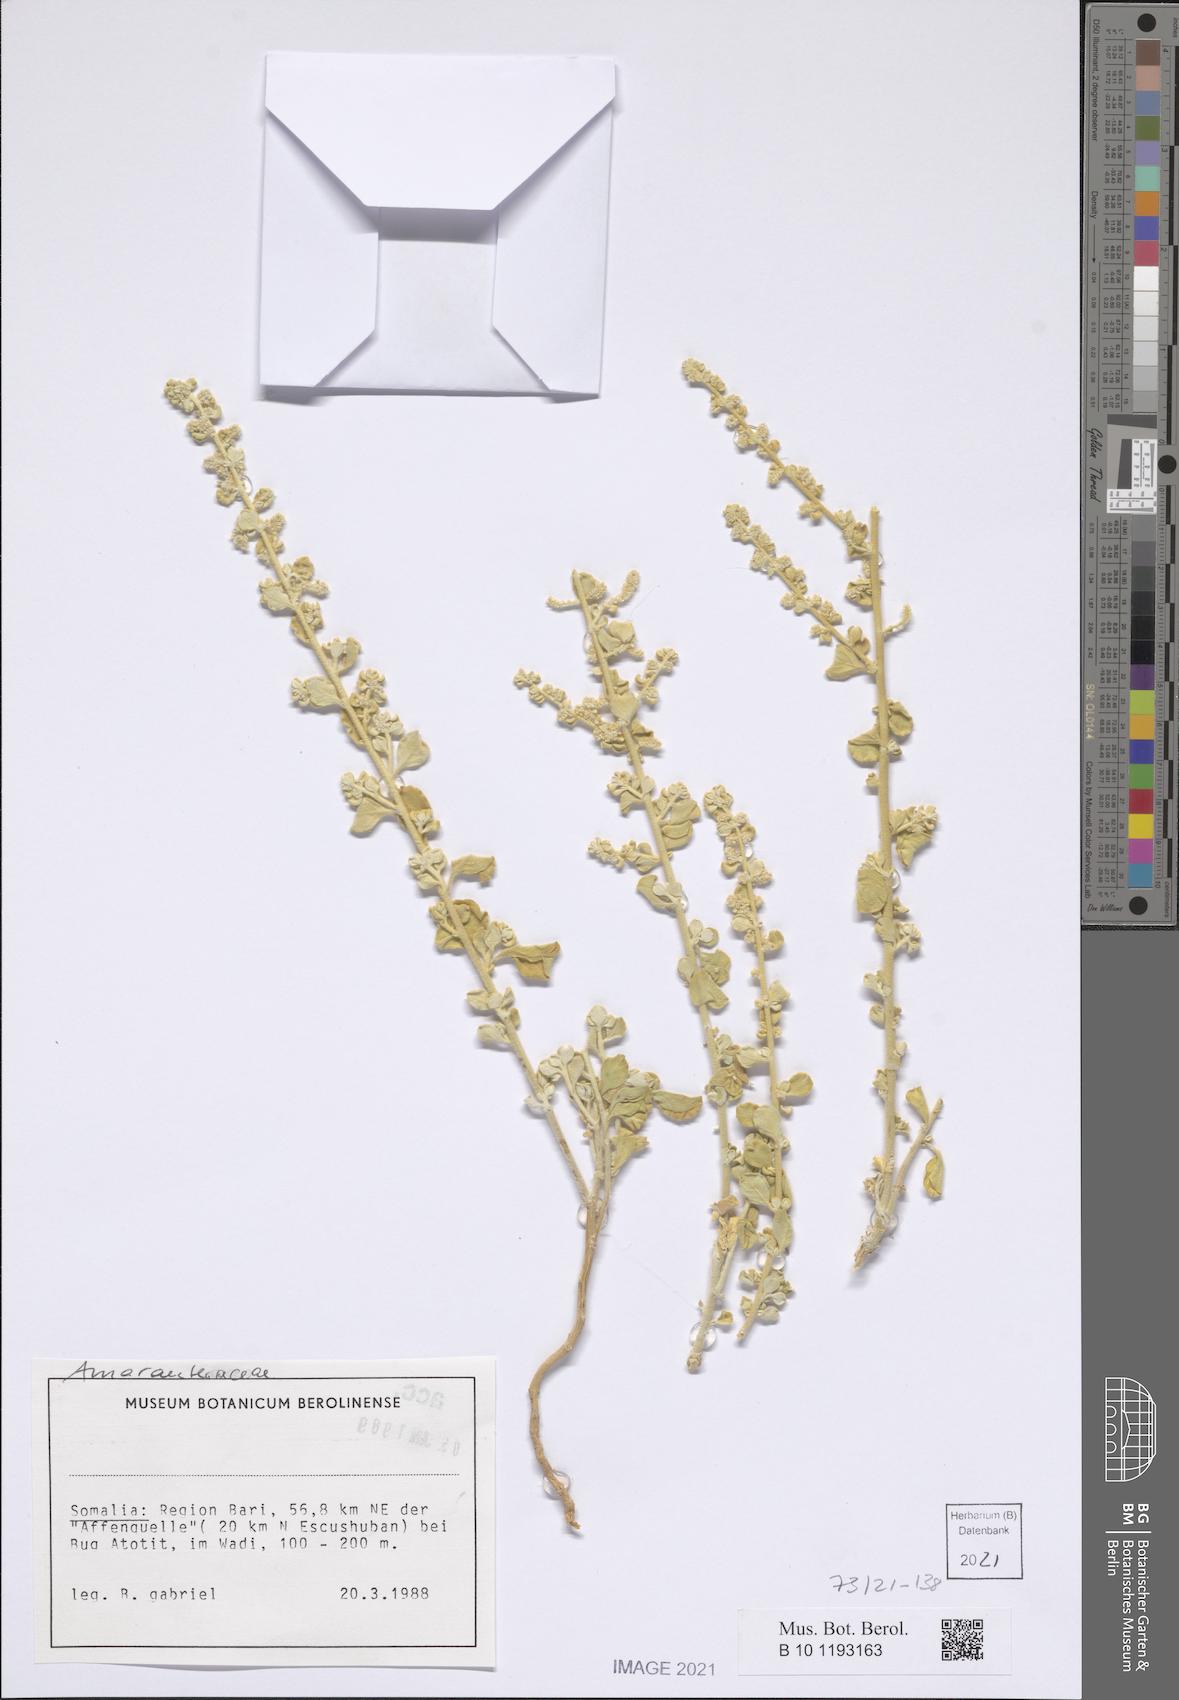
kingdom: Plantae
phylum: Tracheophyta
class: Magnoliopsida
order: Caryophyllales
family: Amaranthaceae
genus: Ouret
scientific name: Ouret lanata
